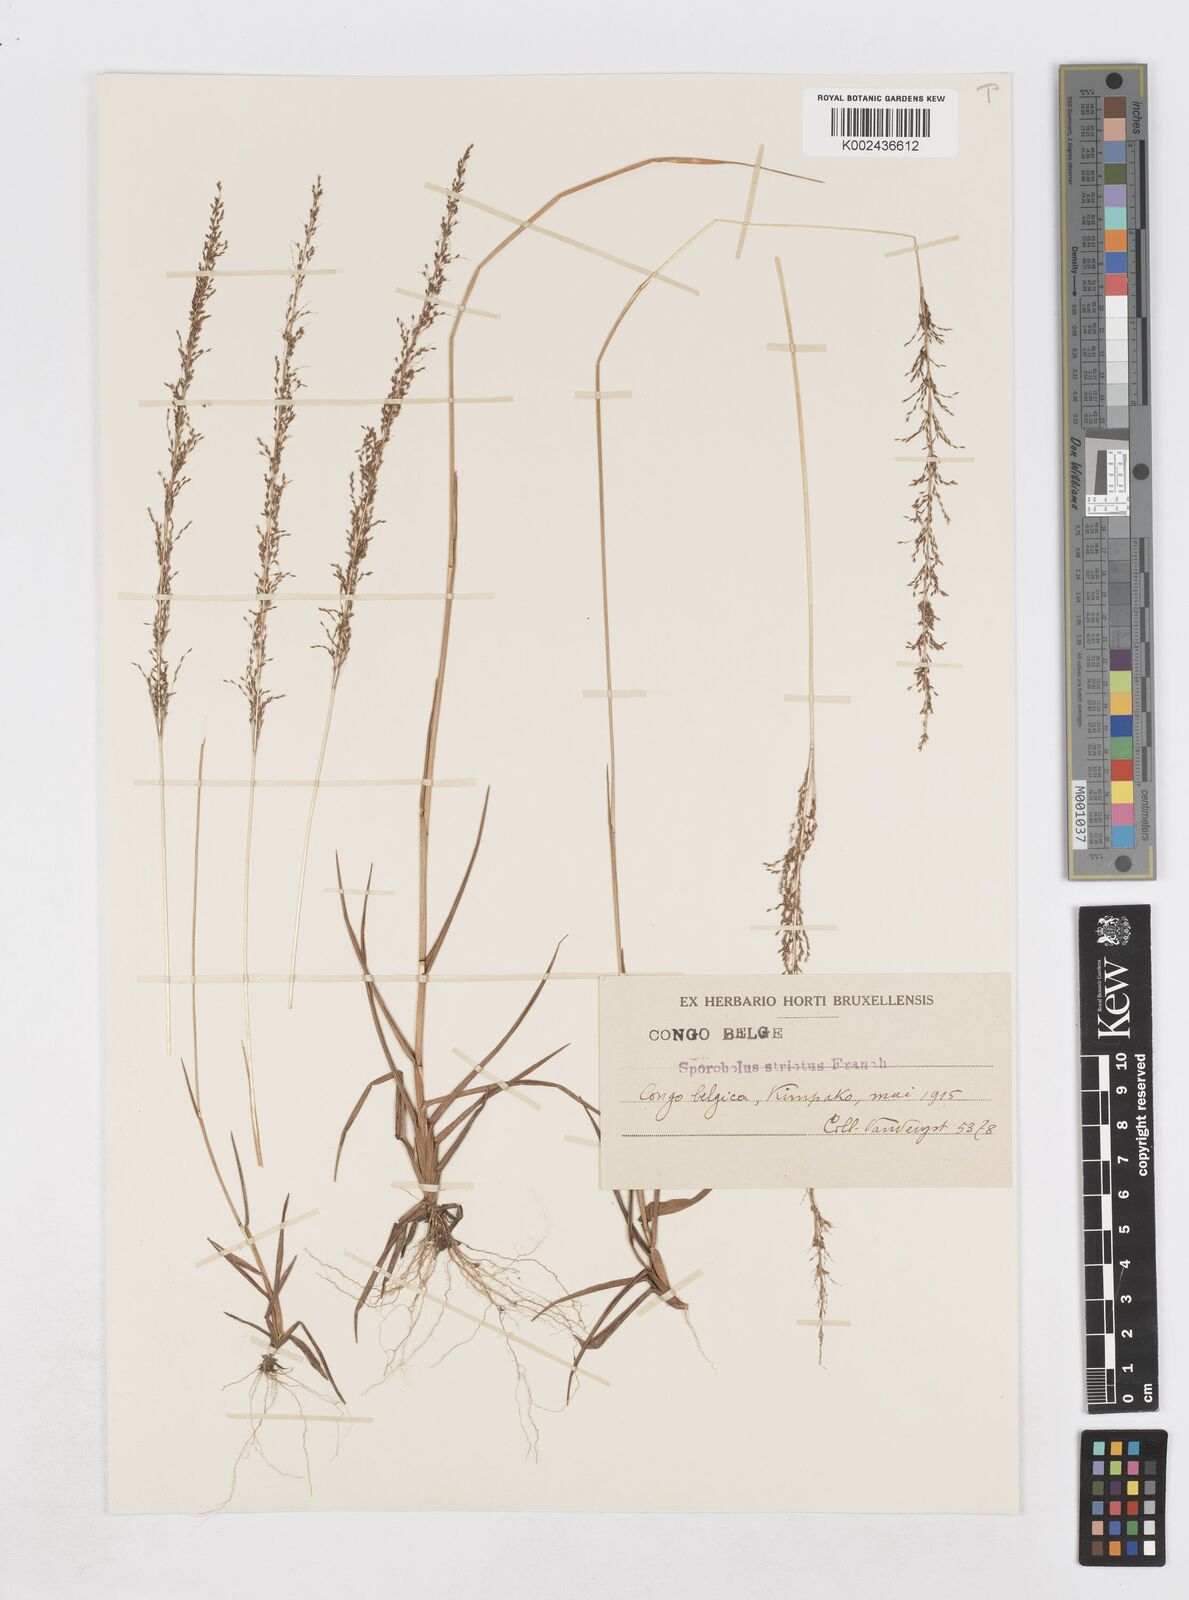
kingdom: Plantae
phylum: Tracheophyta
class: Liliopsida
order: Poales
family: Poaceae
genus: Sporobolus
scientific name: Sporobolus paniculatus
